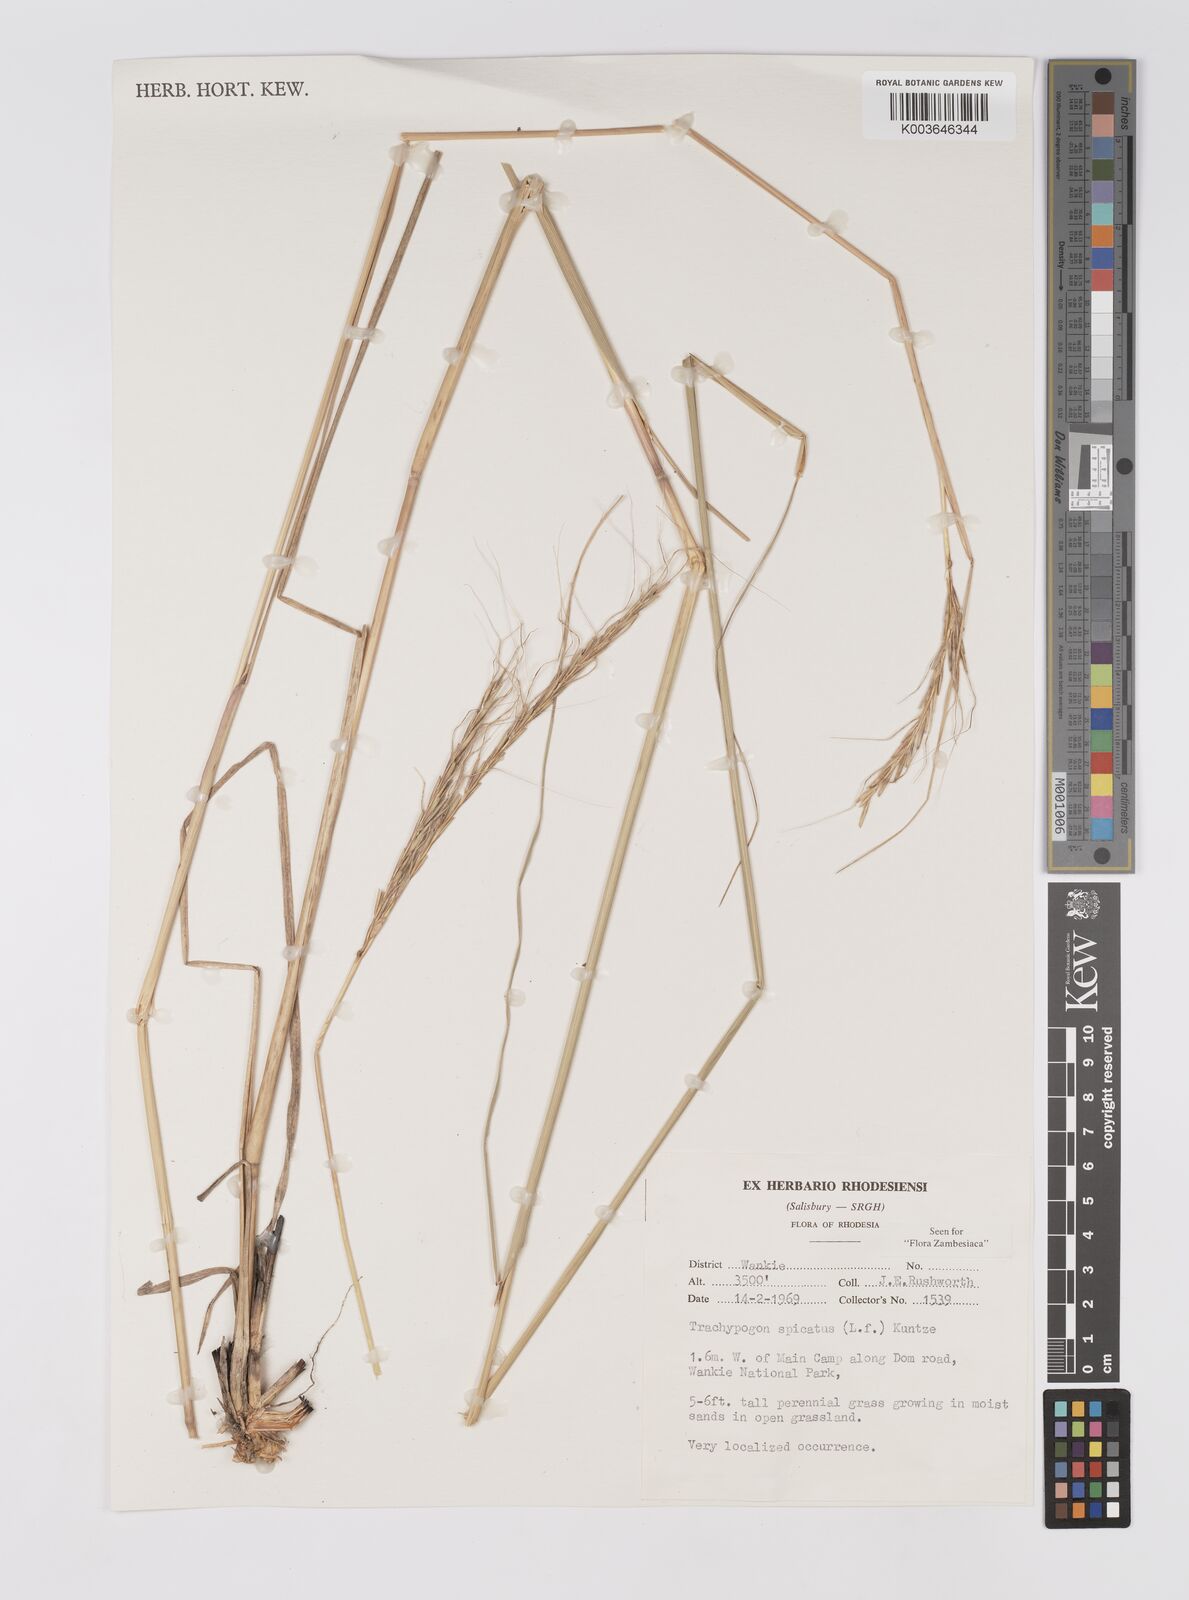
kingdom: Plantae
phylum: Tracheophyta
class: Liliopsida
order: Poales
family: Poaceae
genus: Trachypogon
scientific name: Trachypogon spicatus
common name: Crinkle-awn
